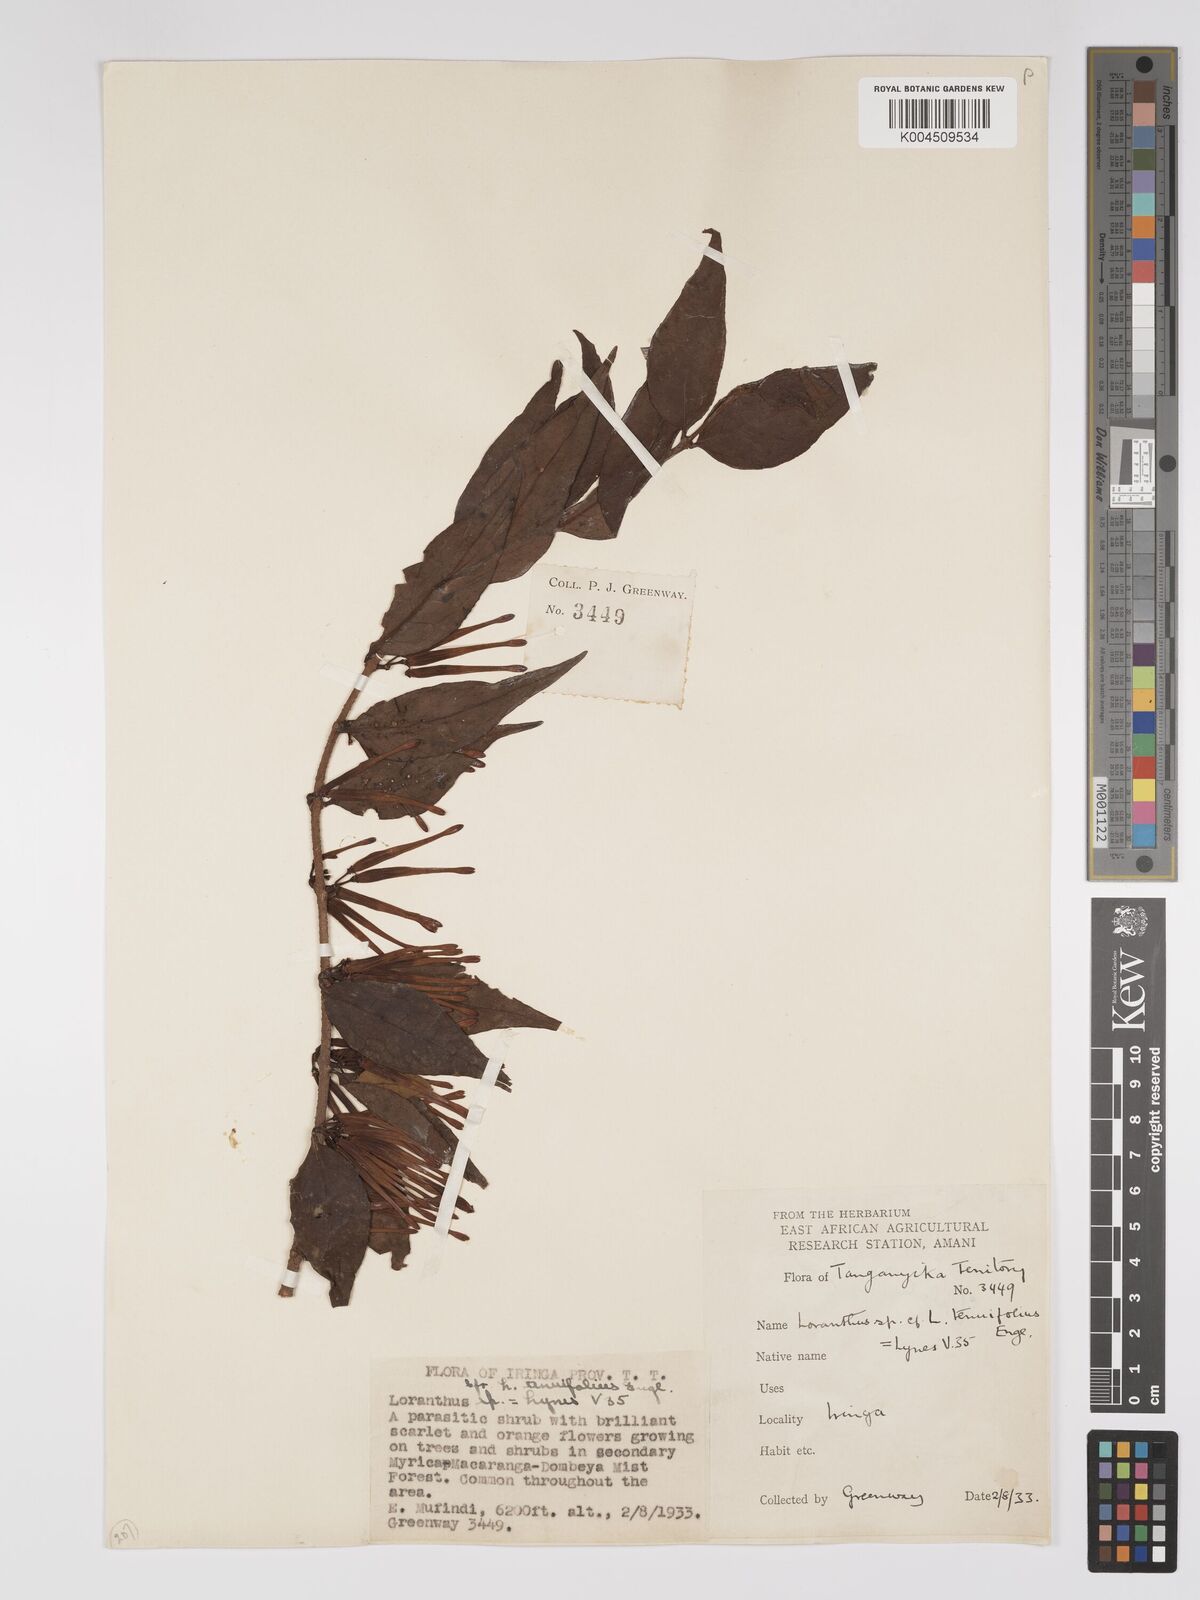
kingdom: Plantae
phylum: Tracheophyta
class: Magnoliopsida
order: Santalales
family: Loranthaceae
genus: Englerina
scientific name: Englerina inaequilatera
